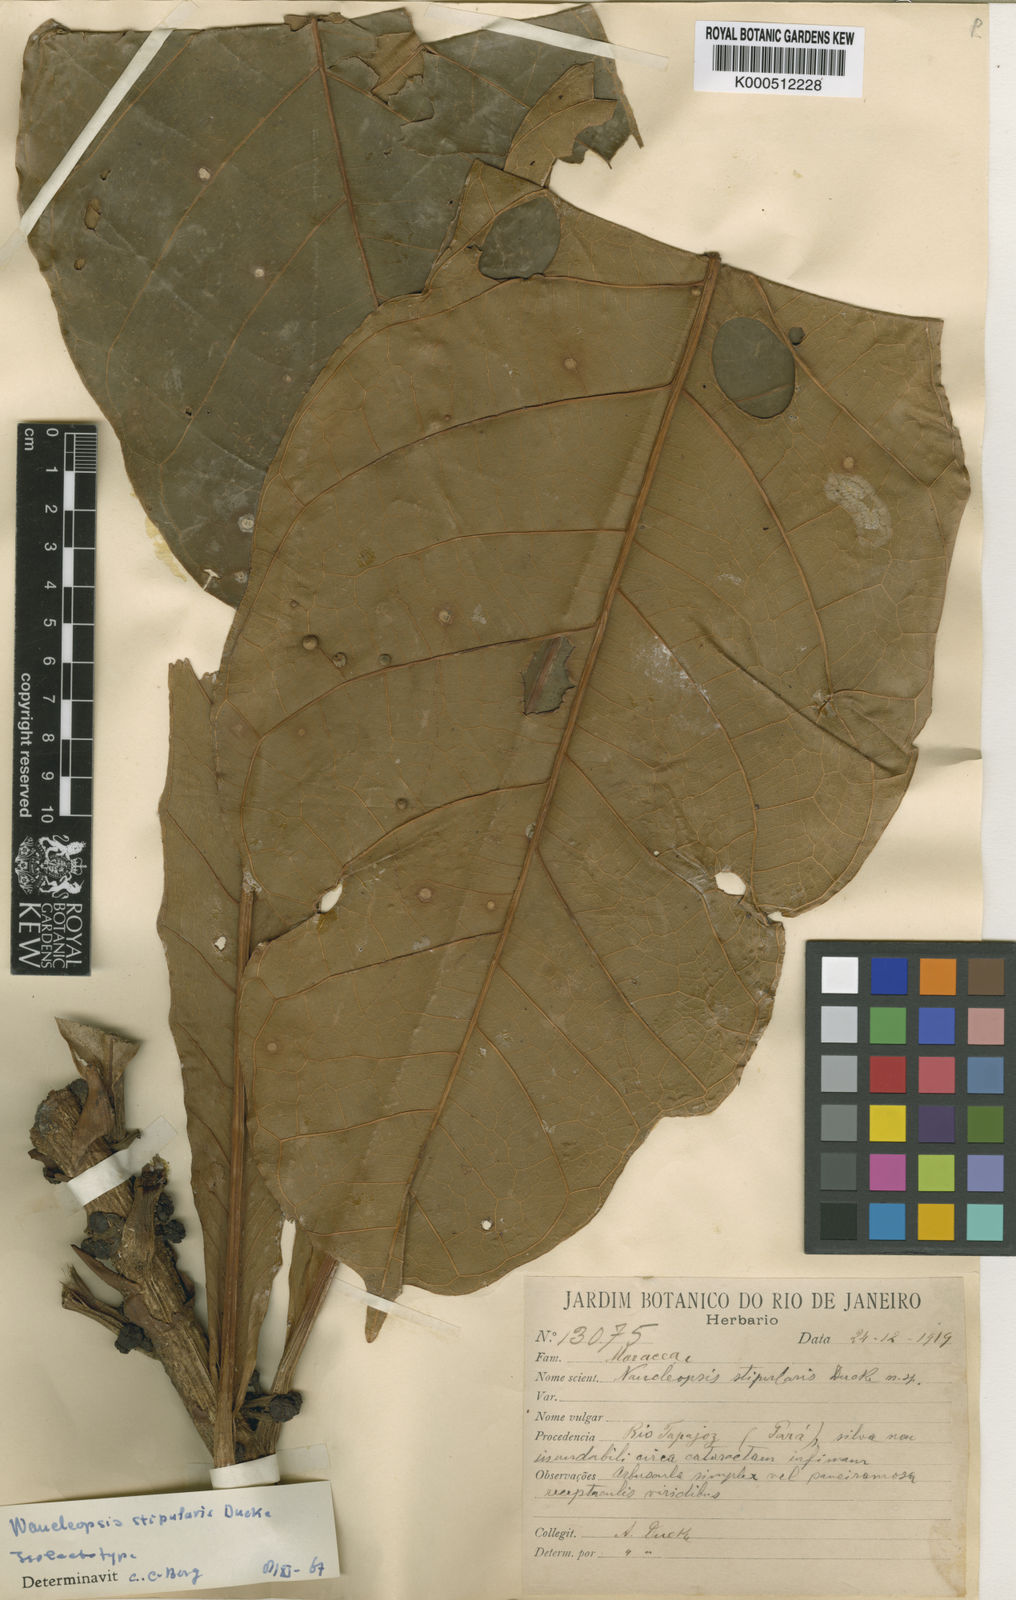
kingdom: Plantae
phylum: Tracheophyta
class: Magnoliopsida
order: Rosales
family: Moraceae
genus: Naucleopsis
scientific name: Naucleopsis stipularis
